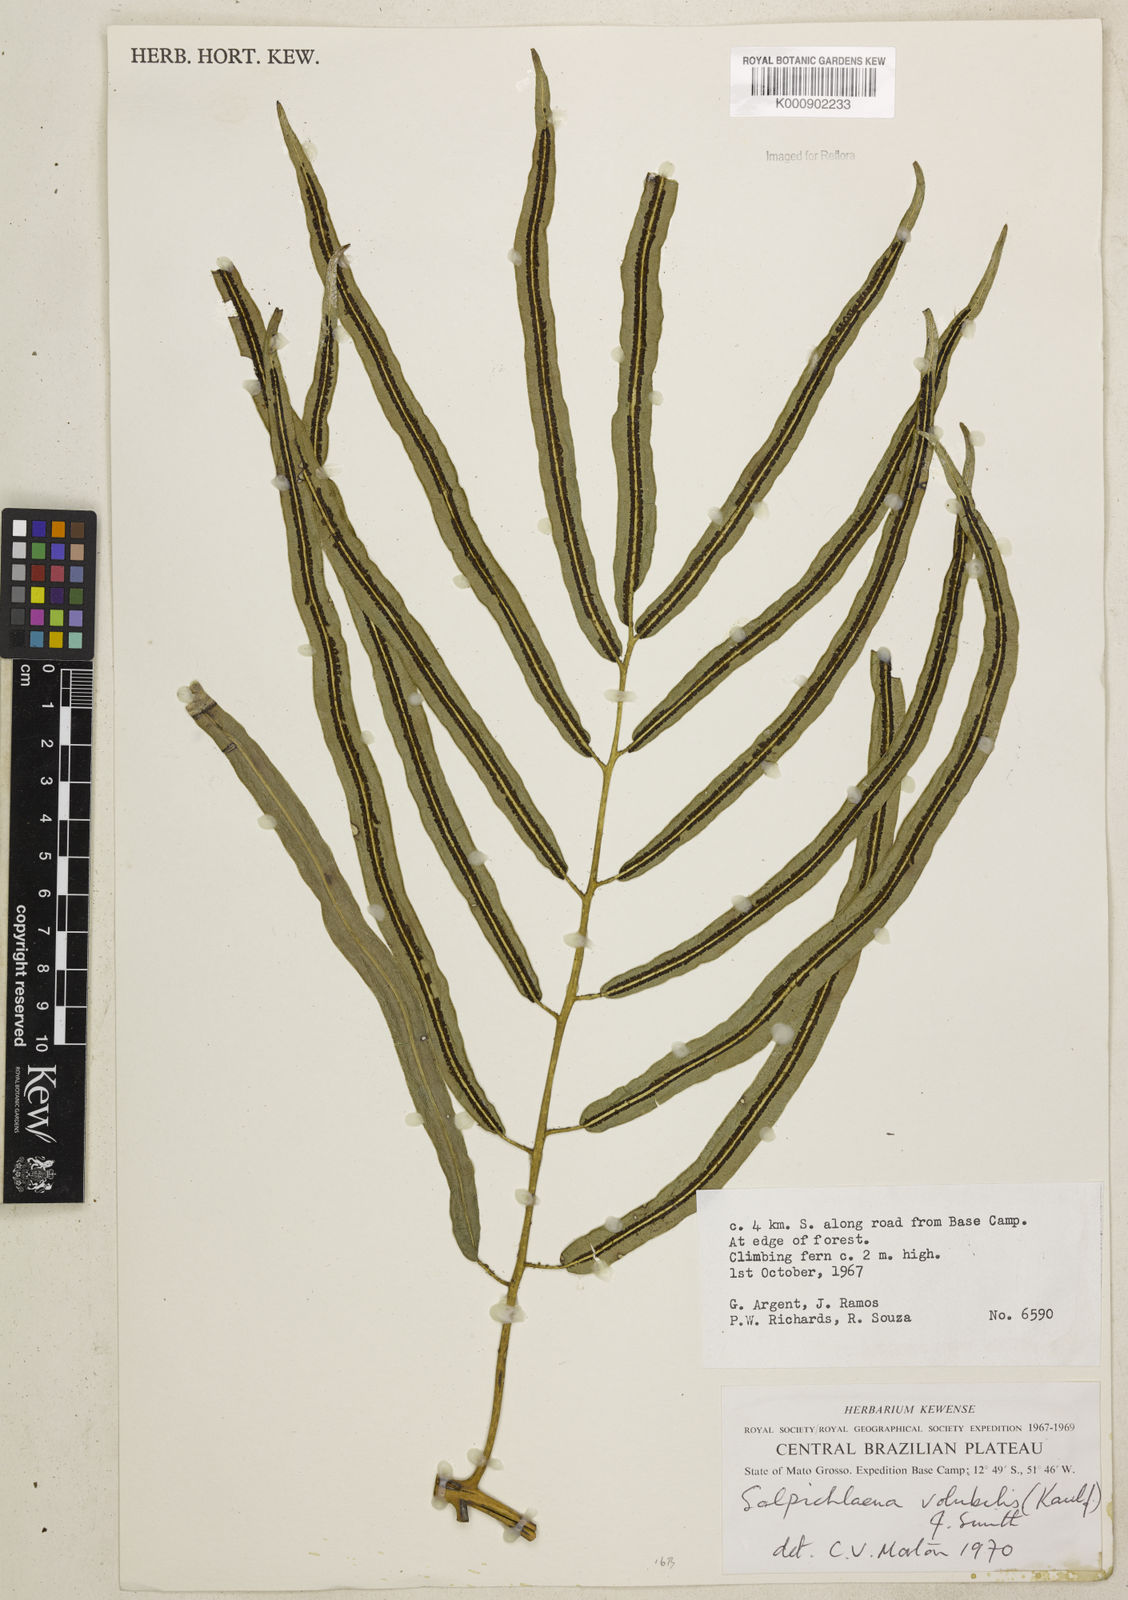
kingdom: Plantae
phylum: Tracheophyta
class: Polypodiopsida
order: Polypodiales
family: Blechnaceae
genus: Salpichlaena
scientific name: Salpichlaena volubilis
